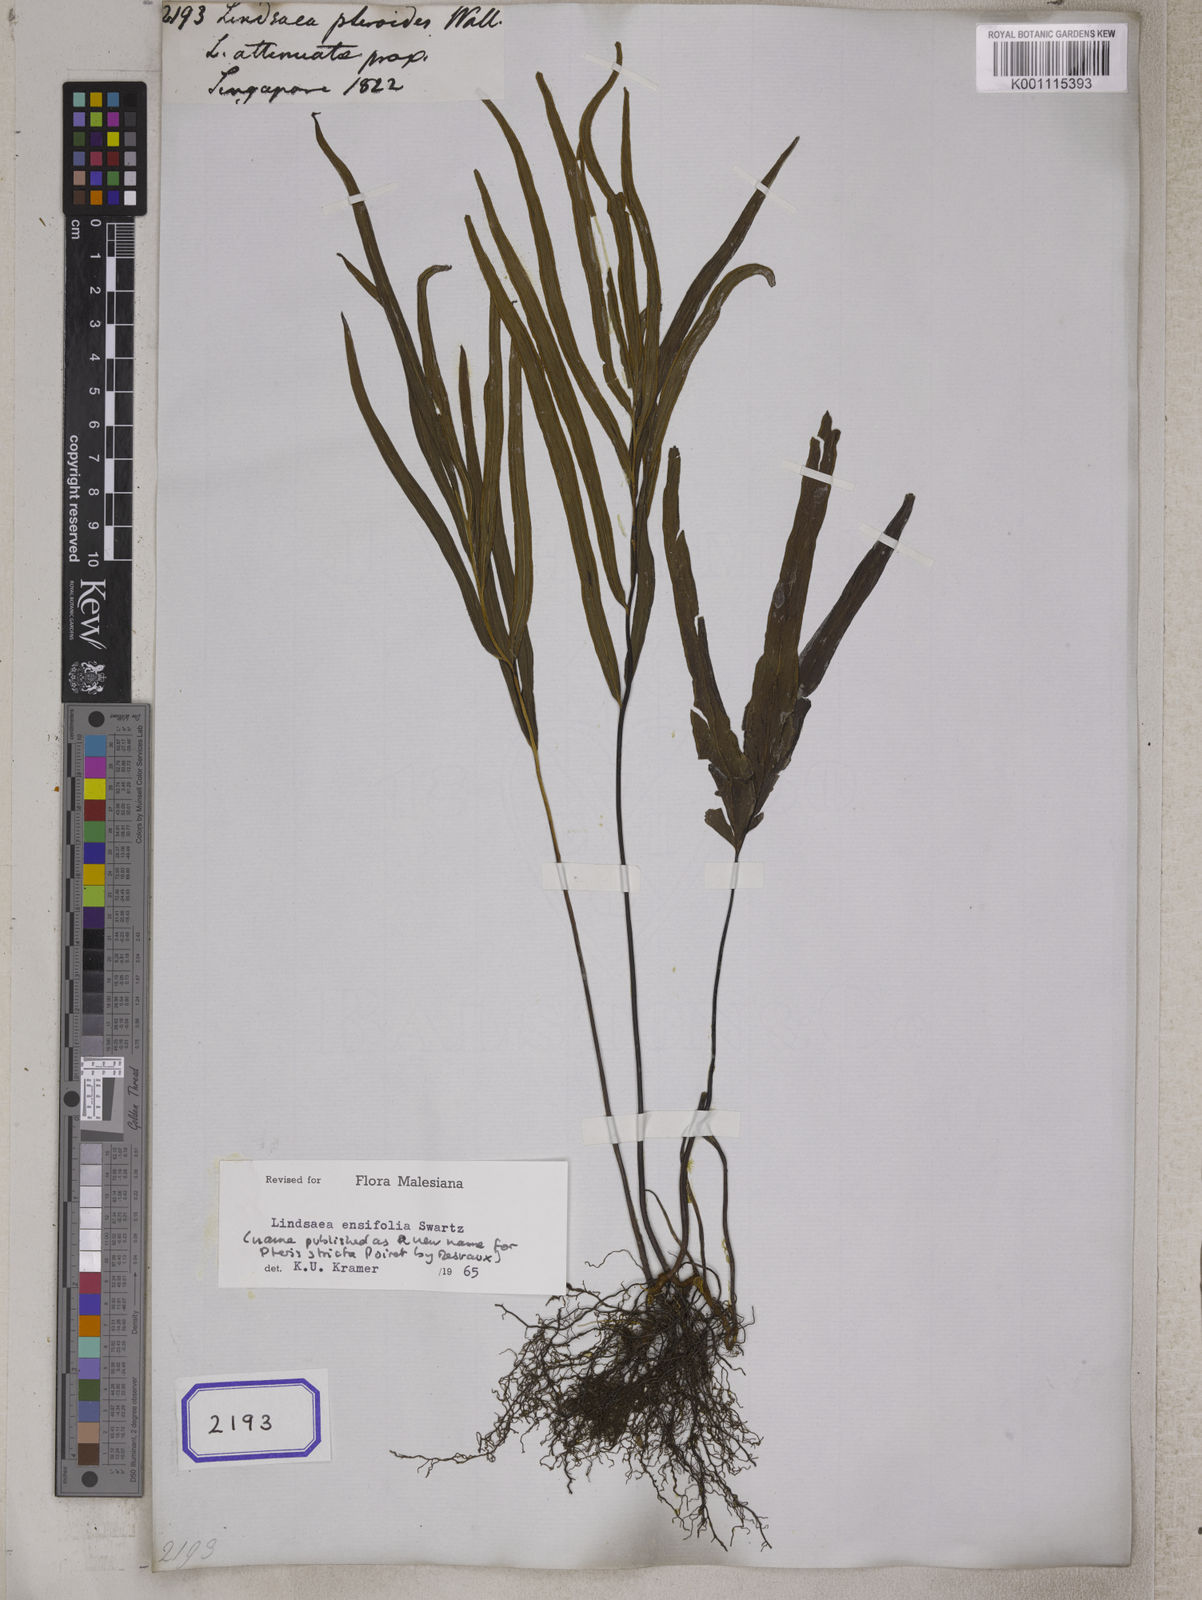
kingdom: Plantae
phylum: Tracheophyta
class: Polypodiopsida
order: Polypodiales
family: Lindsaeaceae
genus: Lindsaea
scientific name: Lindsaea
